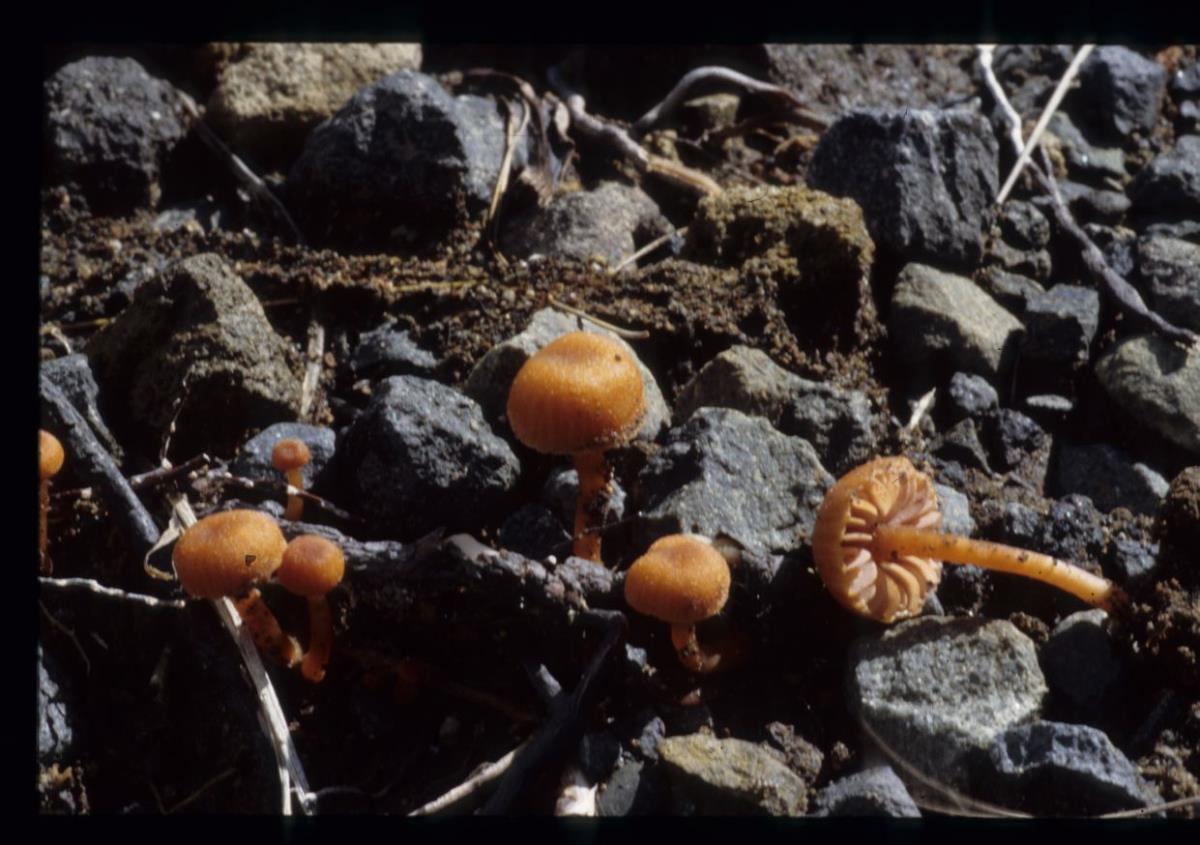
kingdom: Fungi
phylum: Basidiomycota
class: Agaricomycetes
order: Agaricales
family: Hydnangiaceae
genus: Laccaria
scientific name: Laccaria
